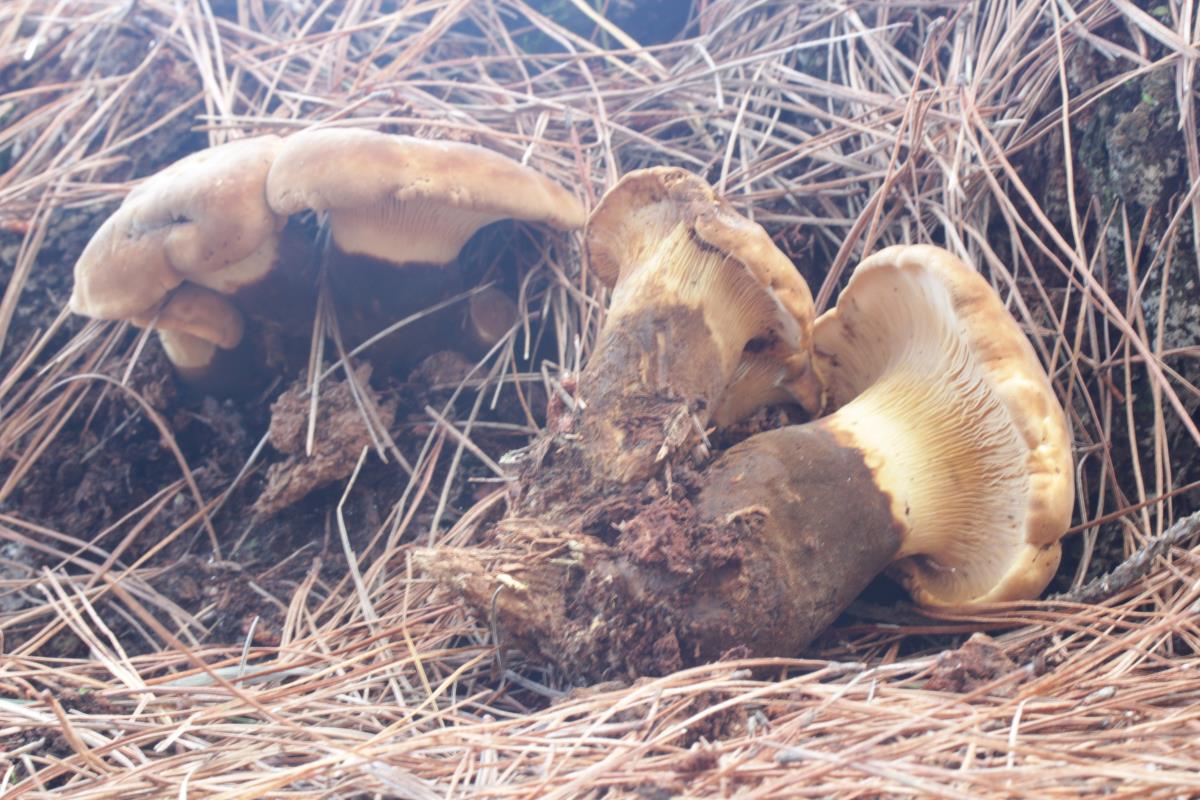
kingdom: Fungi
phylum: Basidiomycota
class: Agaricomycetes
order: Boletales
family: Tapinellaceae
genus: Tapinella
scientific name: Tapinella atrotomentosa
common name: Velvet rollrim
